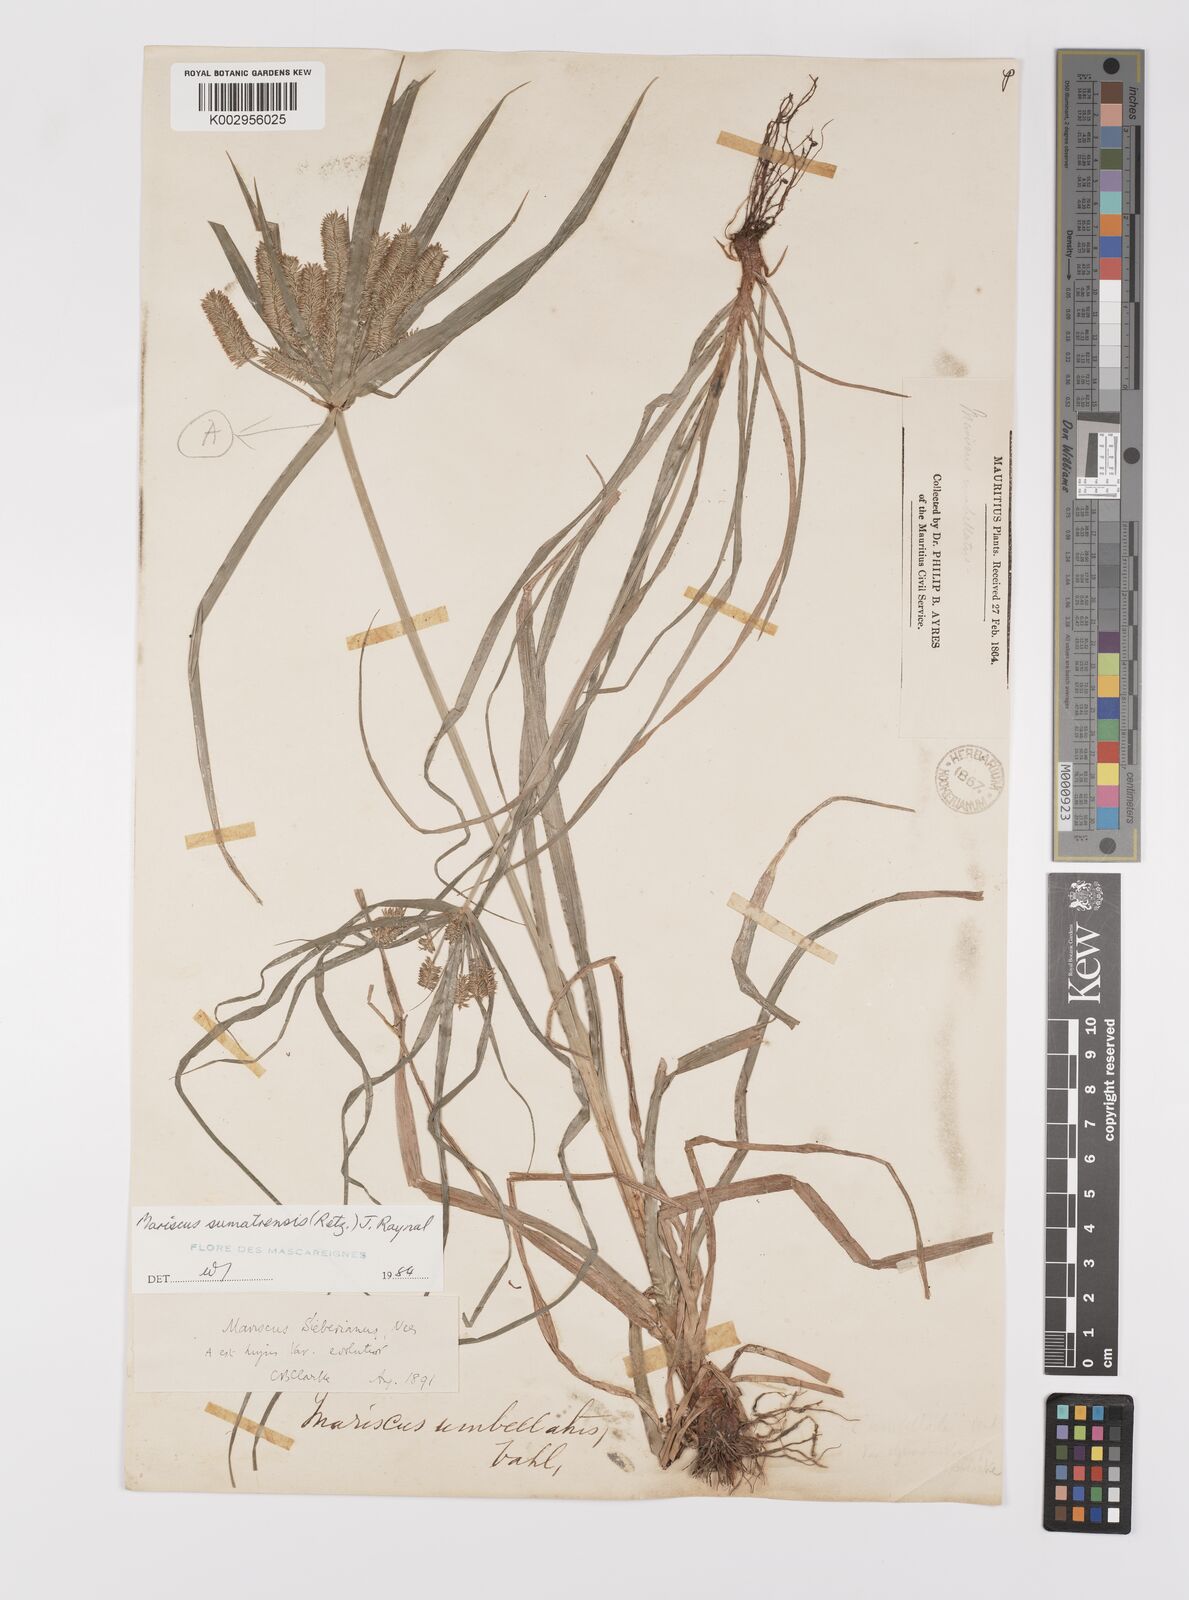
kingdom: Plantae
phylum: Tracheophyta
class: Liliopsida
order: Poales
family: Cyperaceae
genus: Cyperus
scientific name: Cyperus cyperoides
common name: Pacific island flat sedge
